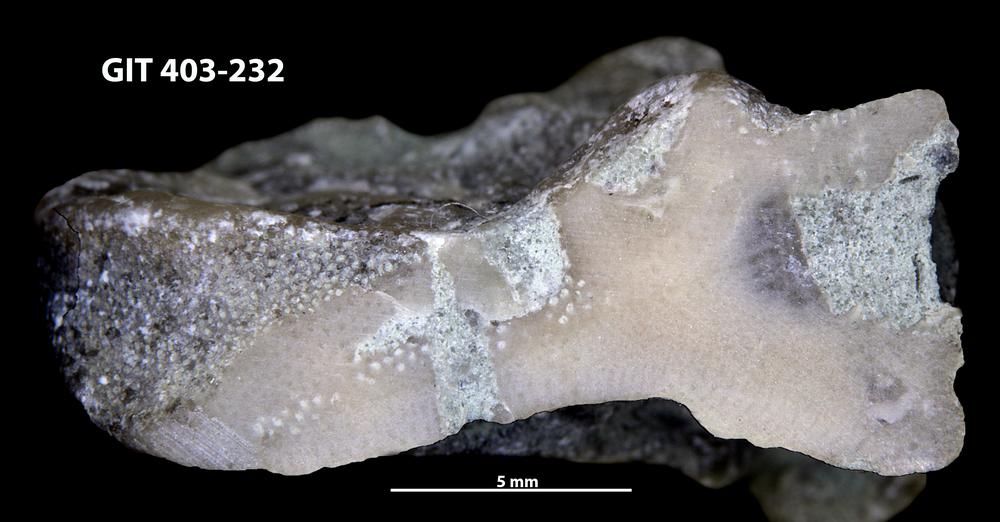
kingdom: Animalia
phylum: Bryozoa
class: Stenolaemata
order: Cystoporida
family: Fistuliporidae
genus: Fistulipora
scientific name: Fistulipora przhidolensis
